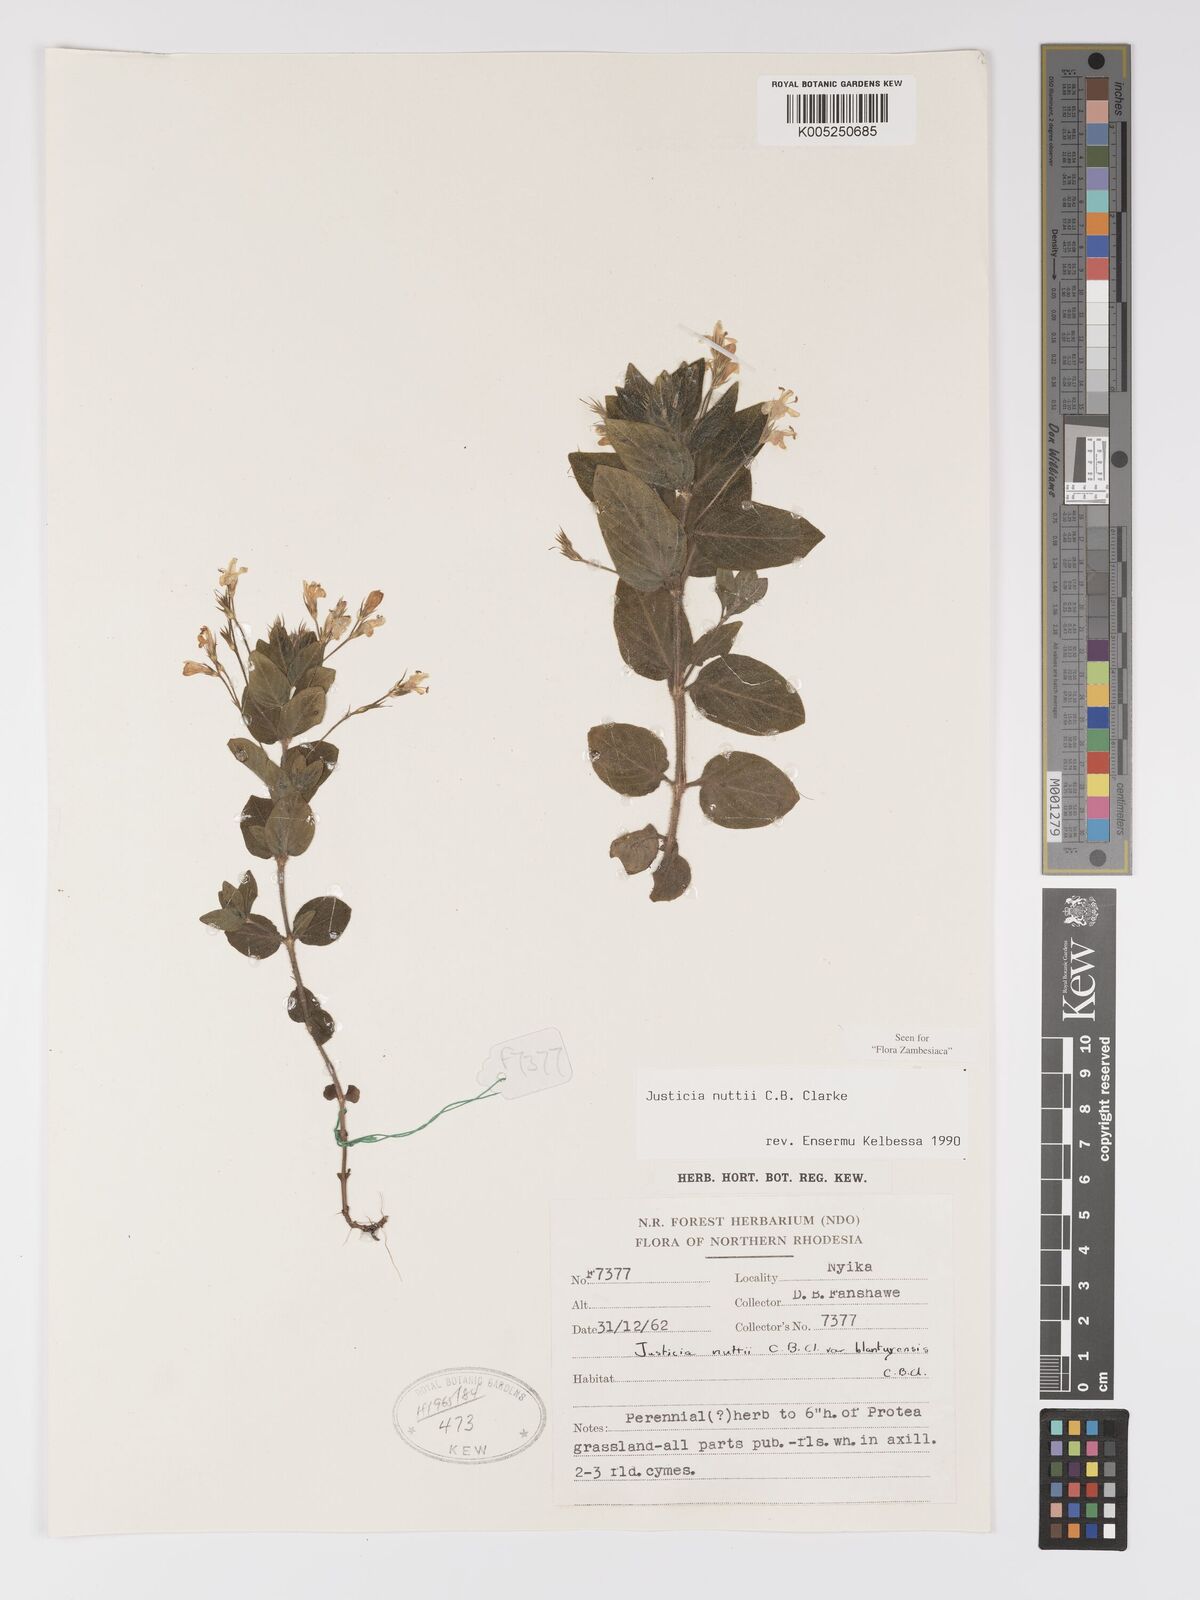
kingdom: Plantae
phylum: Tracheophyta
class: Magnoliopsida
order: Lamiales
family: Acanthaceae
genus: Justicia
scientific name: Justicia nuttii
